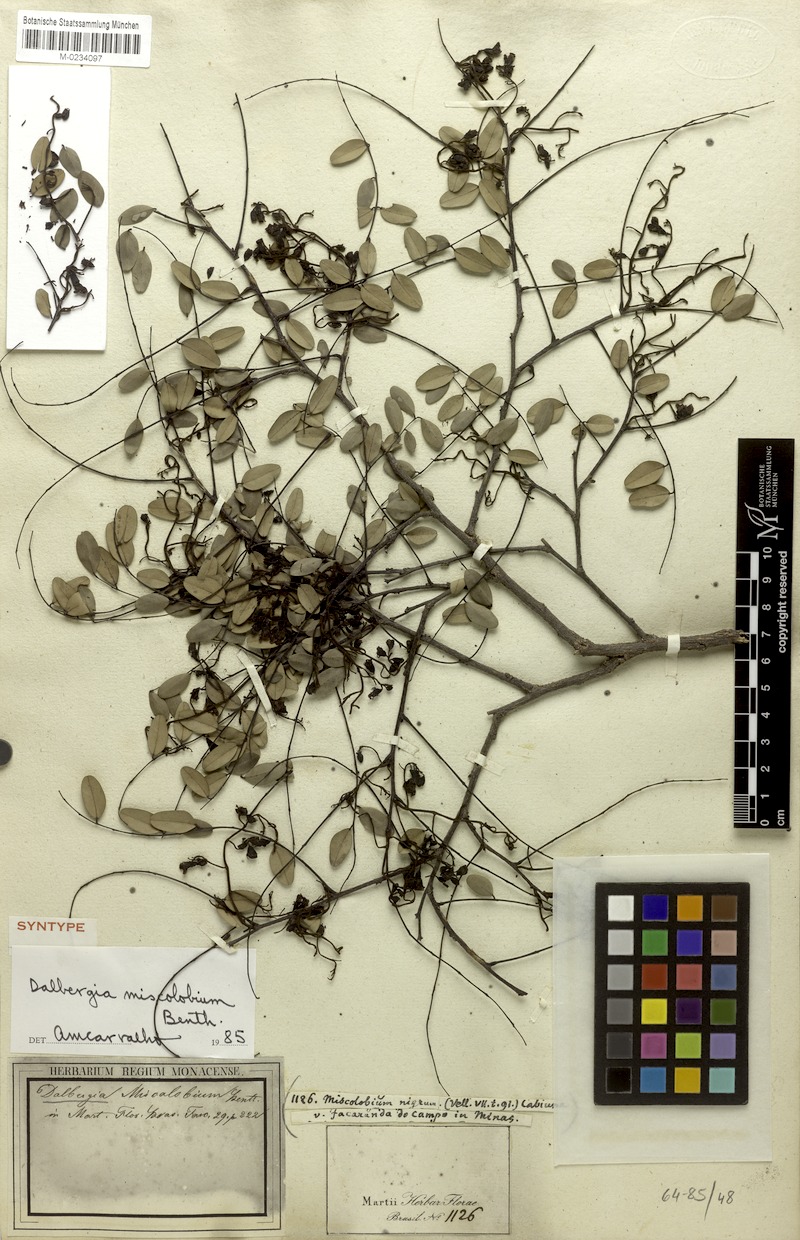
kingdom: Plantae
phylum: Tracheophyta
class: Magnoliopsida
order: Fabales
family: Fabaceae
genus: Dalbergia
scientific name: Dalbergia miscolobium
